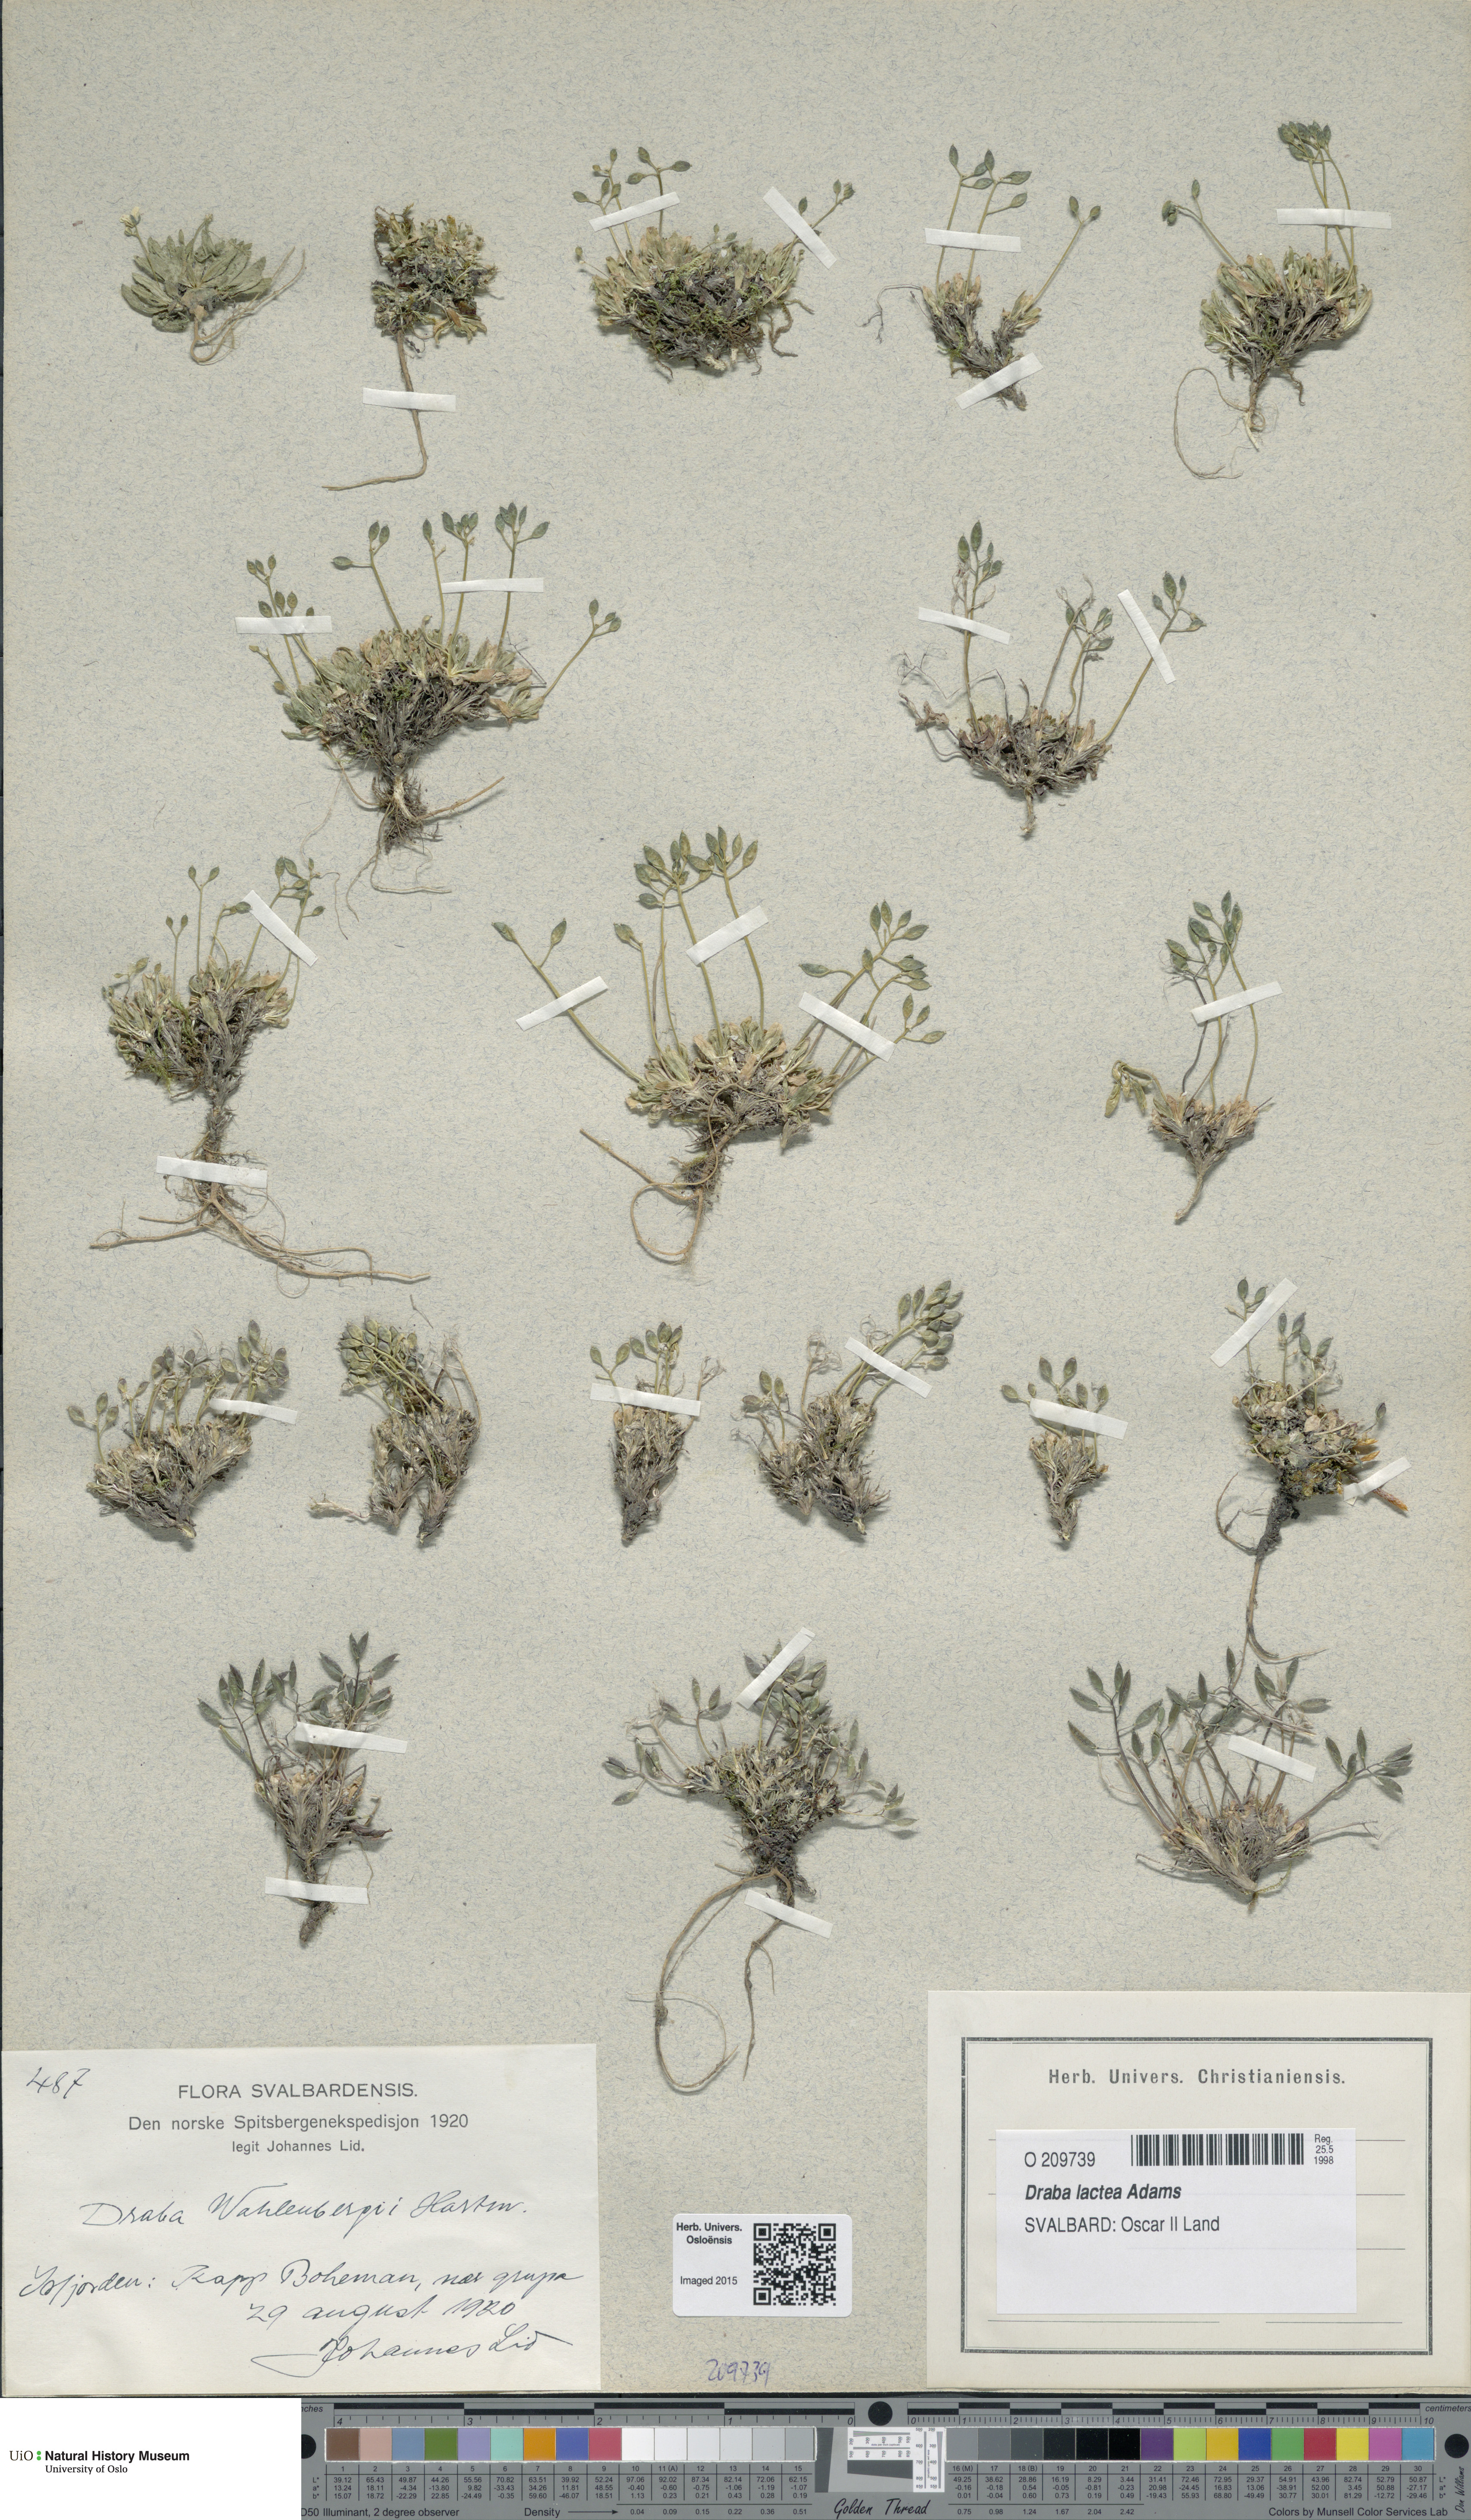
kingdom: Plantae
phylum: Tracheophyta
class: Magnoliopsida
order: Brassicales
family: Brassicaceae
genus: Draba
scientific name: Draba lactea
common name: Milky draba
